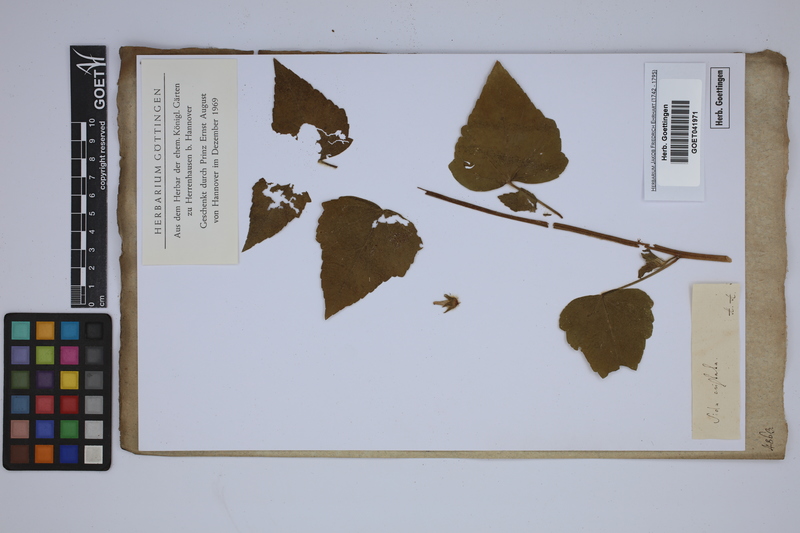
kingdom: Plantae
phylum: Tracheophyta
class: Magnoliopsida
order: Malvales
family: Malvaceae
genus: Anoda
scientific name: Anoda cristata
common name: Spurred anoda
